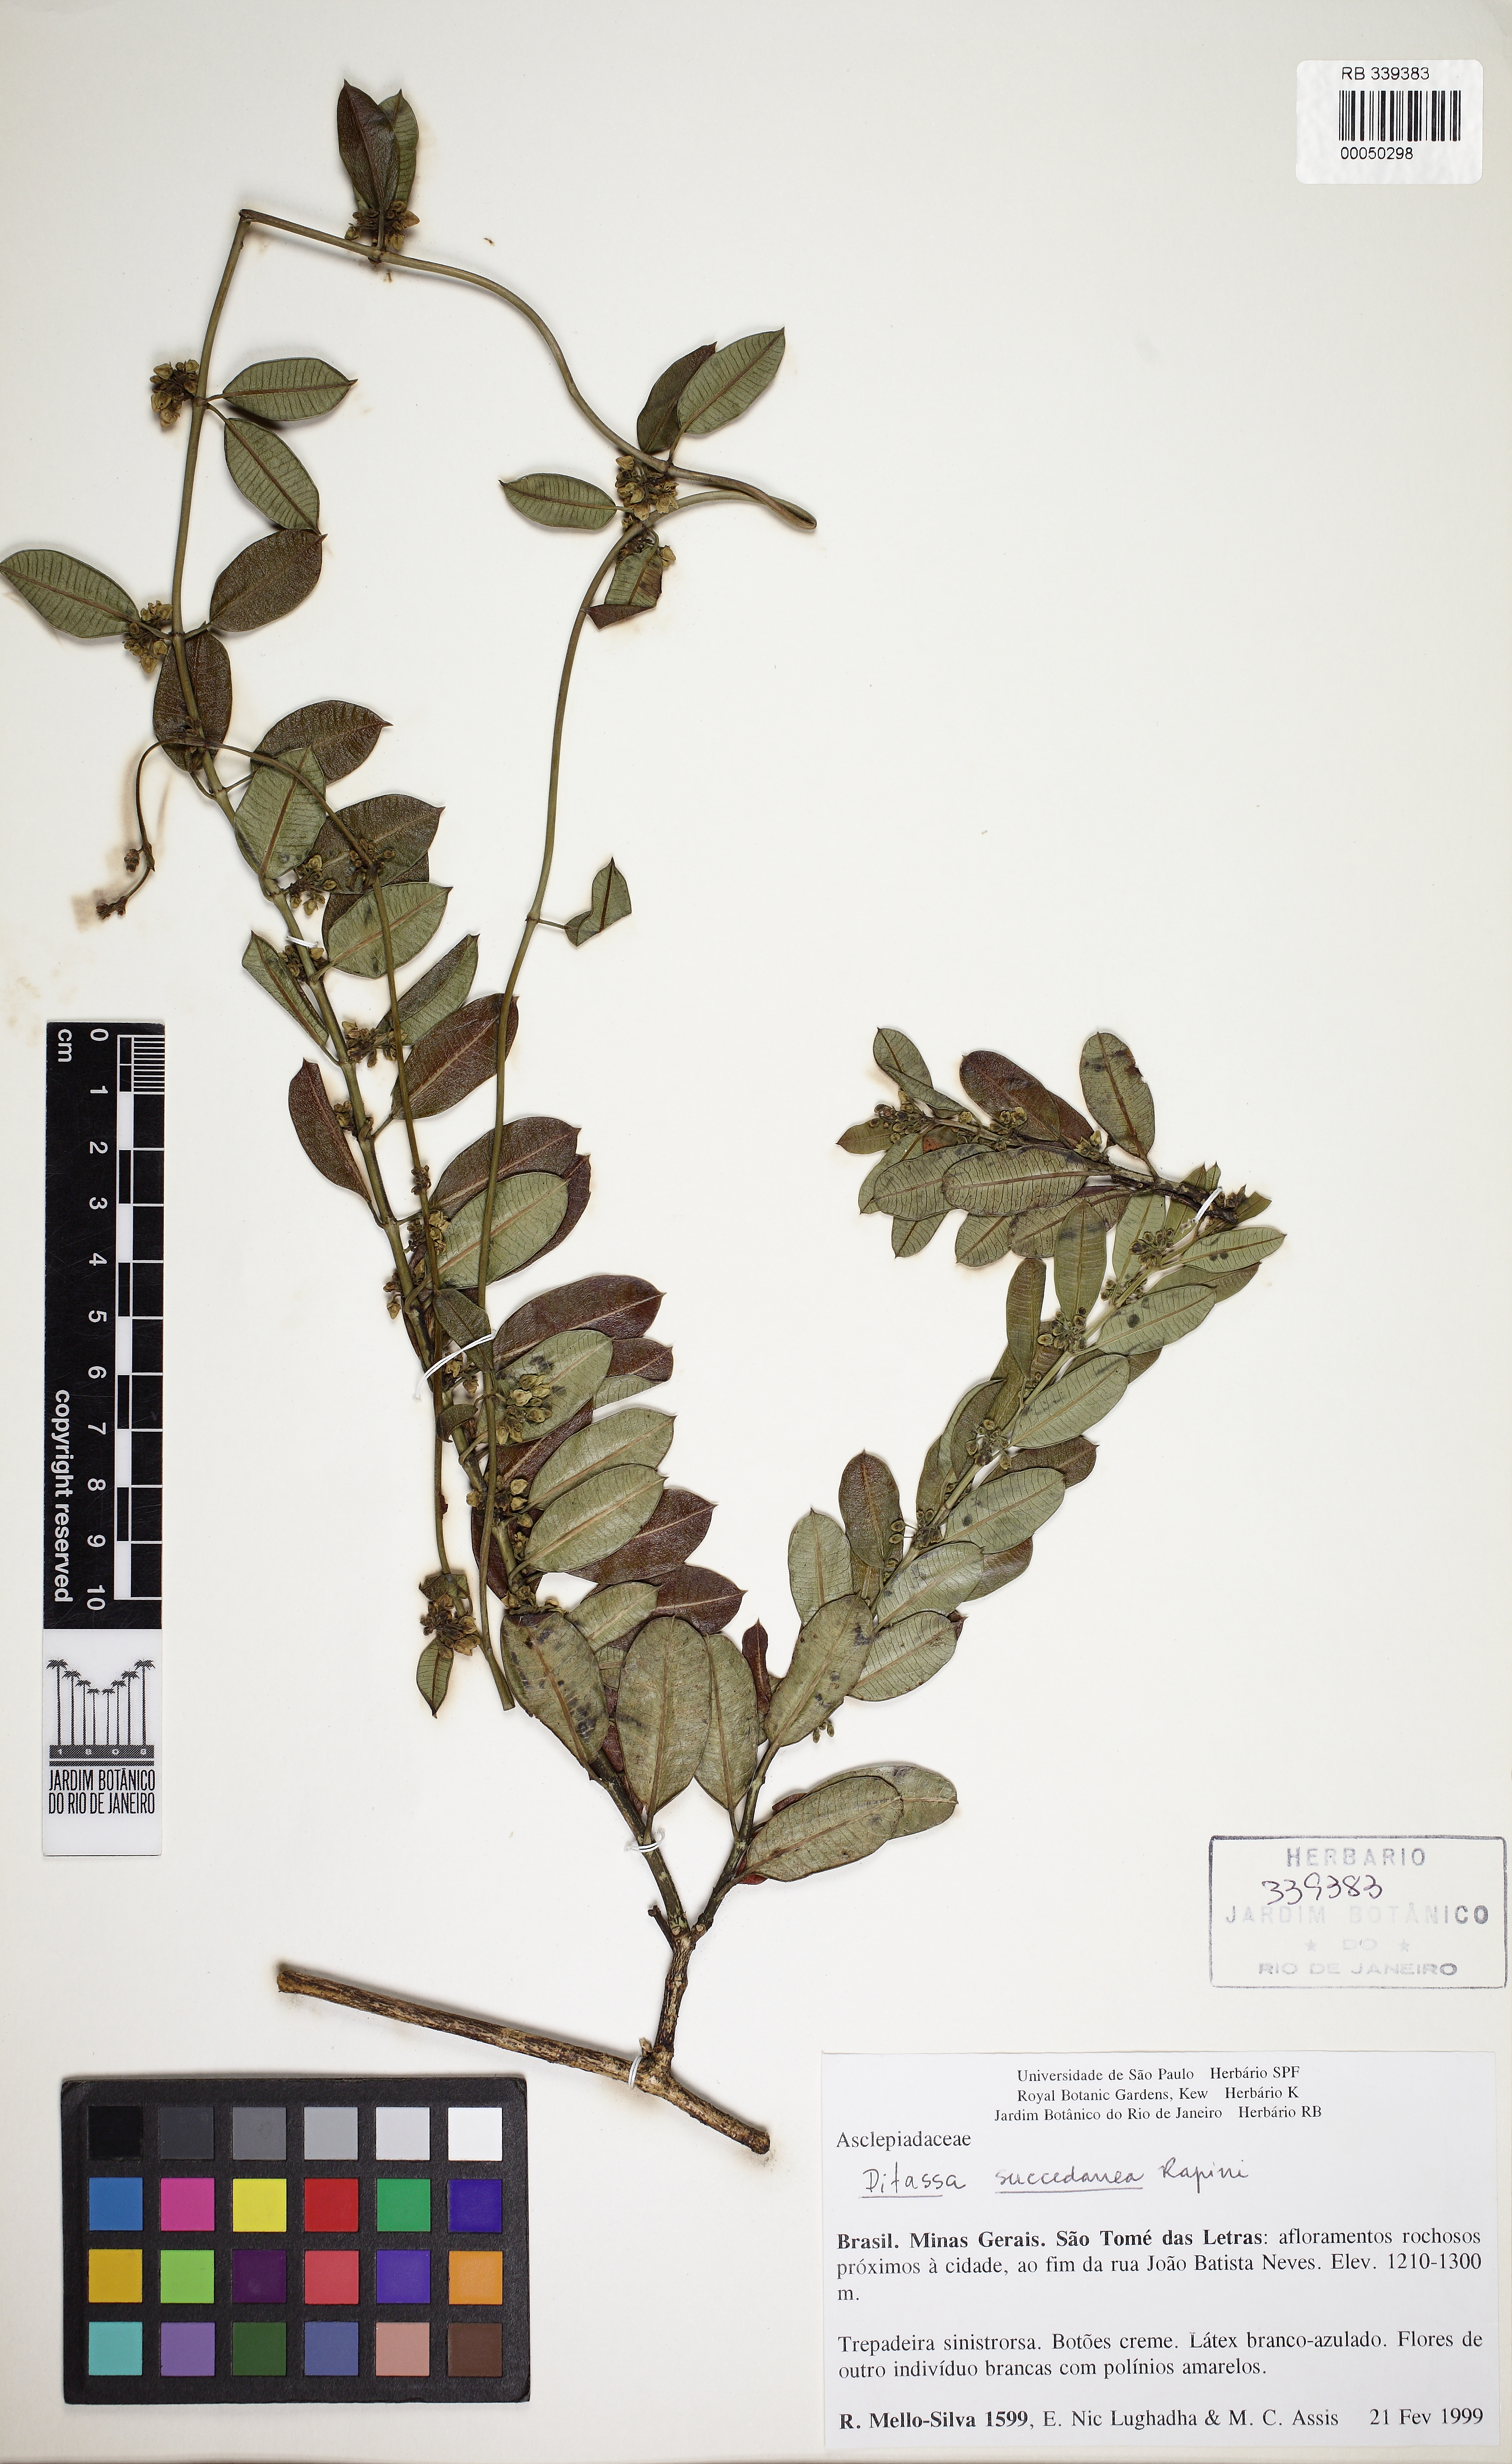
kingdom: Plantae
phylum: Tracheophyta
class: Magnoliopsida
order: Gentianales
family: Apocynaceae
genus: Ditassa
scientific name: Ditassa succedanea
